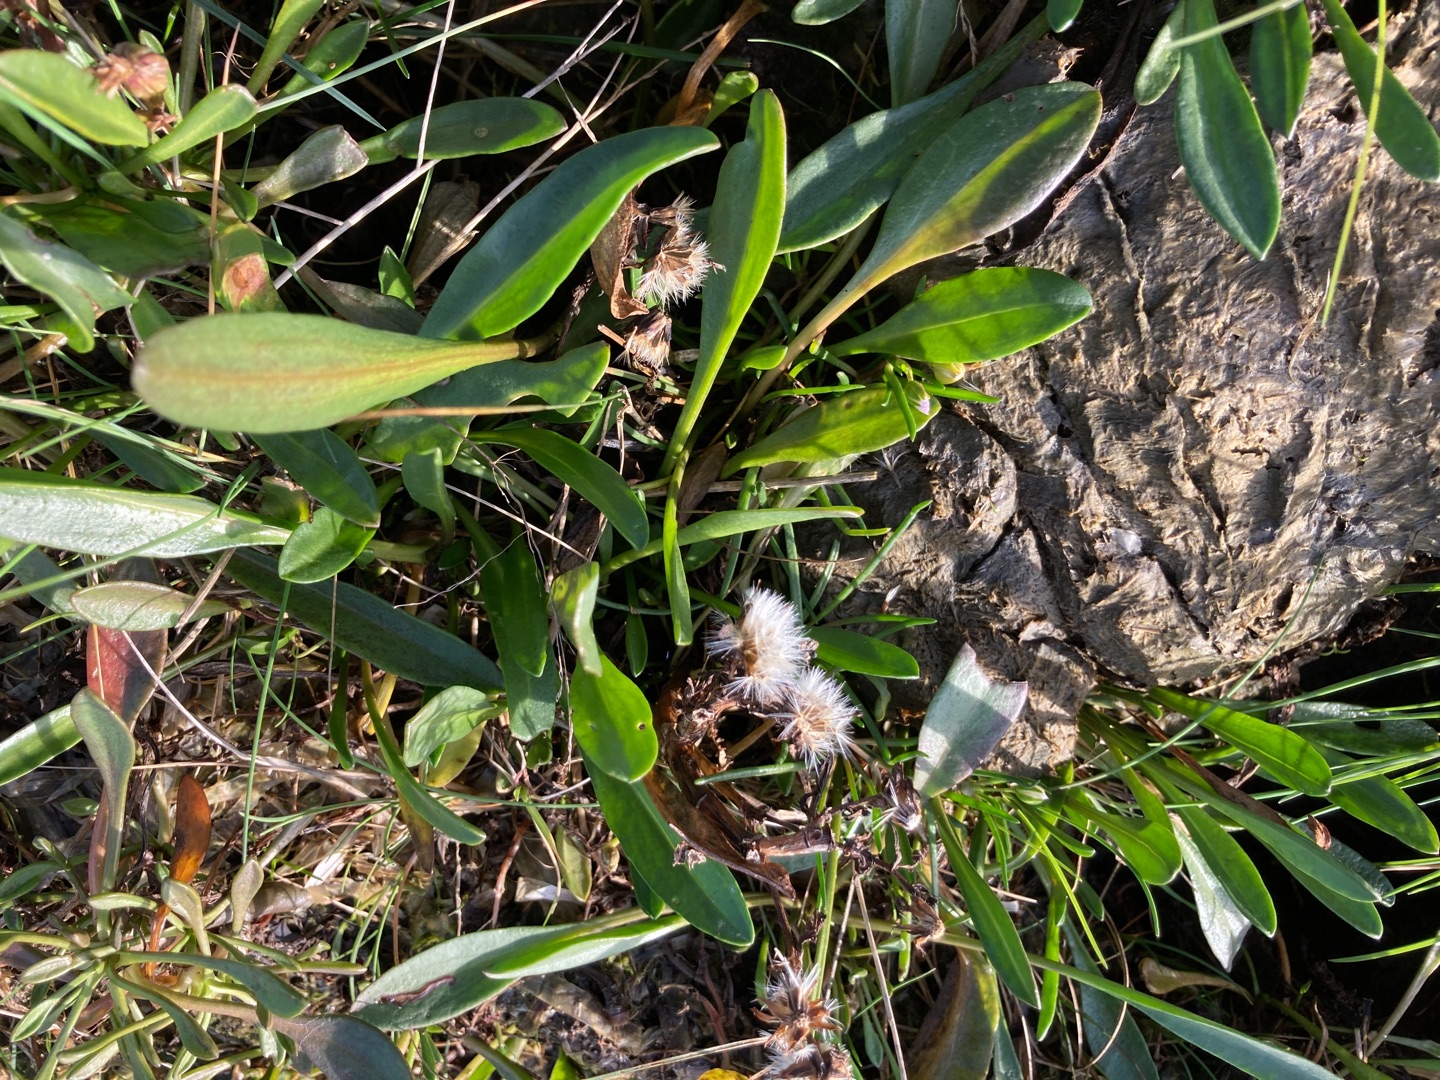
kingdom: Plantae
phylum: Tracheophyta
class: Magnoliopsida
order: Asterales
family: Asteraceae
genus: Tripolium
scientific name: Tripolium pannonicum
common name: Strandasters
